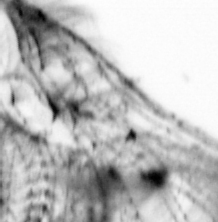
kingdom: Animalia
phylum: Chordata
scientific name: Chordata
